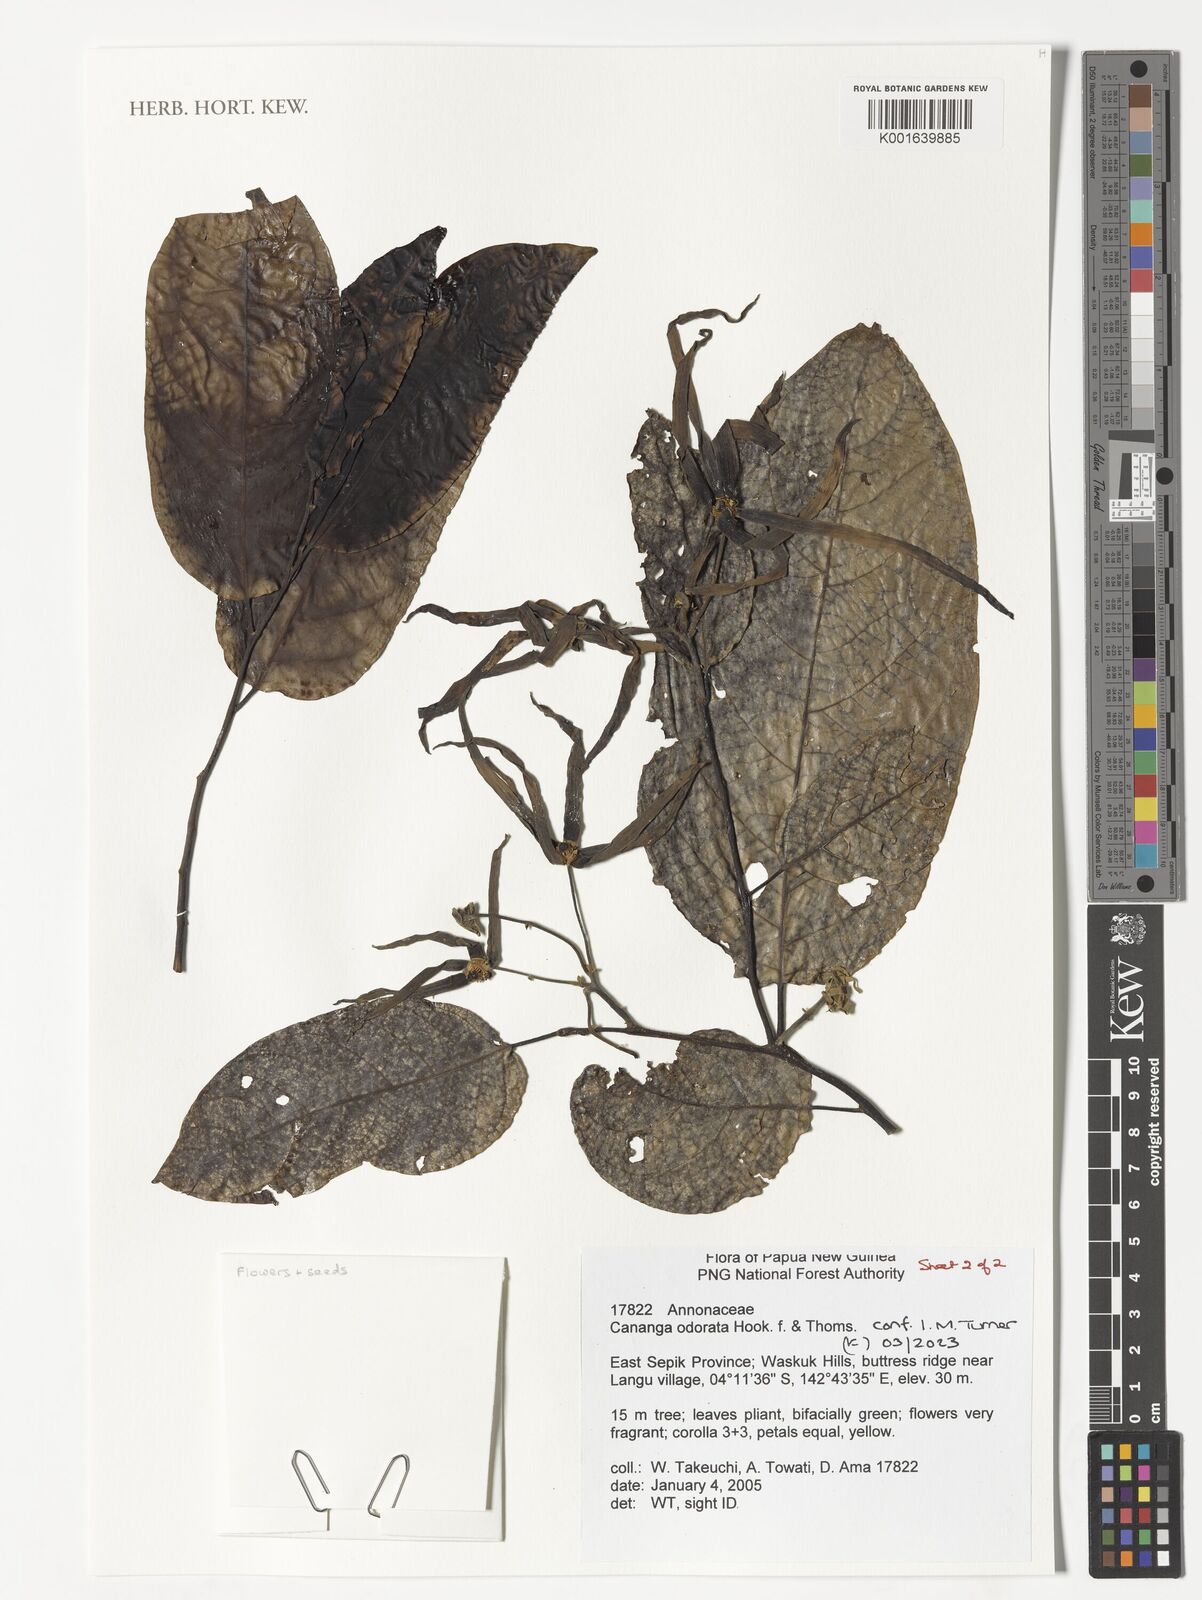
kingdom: Plantae
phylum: Tracheophyta
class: Magnoliopsida
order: Magnoliales
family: Annonaceae
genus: Cananga
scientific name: Cananga odorata
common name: Cananga tree
